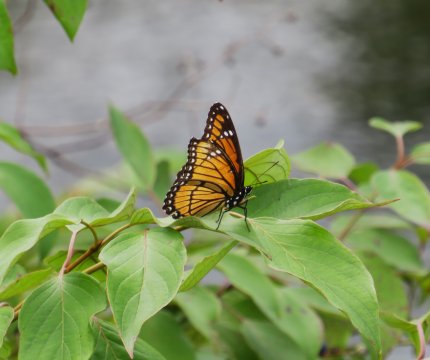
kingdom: Animalia
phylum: Arthropoda
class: Insecta
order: Lepidoptera
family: Nymphalidae
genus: Limenitis
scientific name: Limenitis archippus
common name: Viceroy
